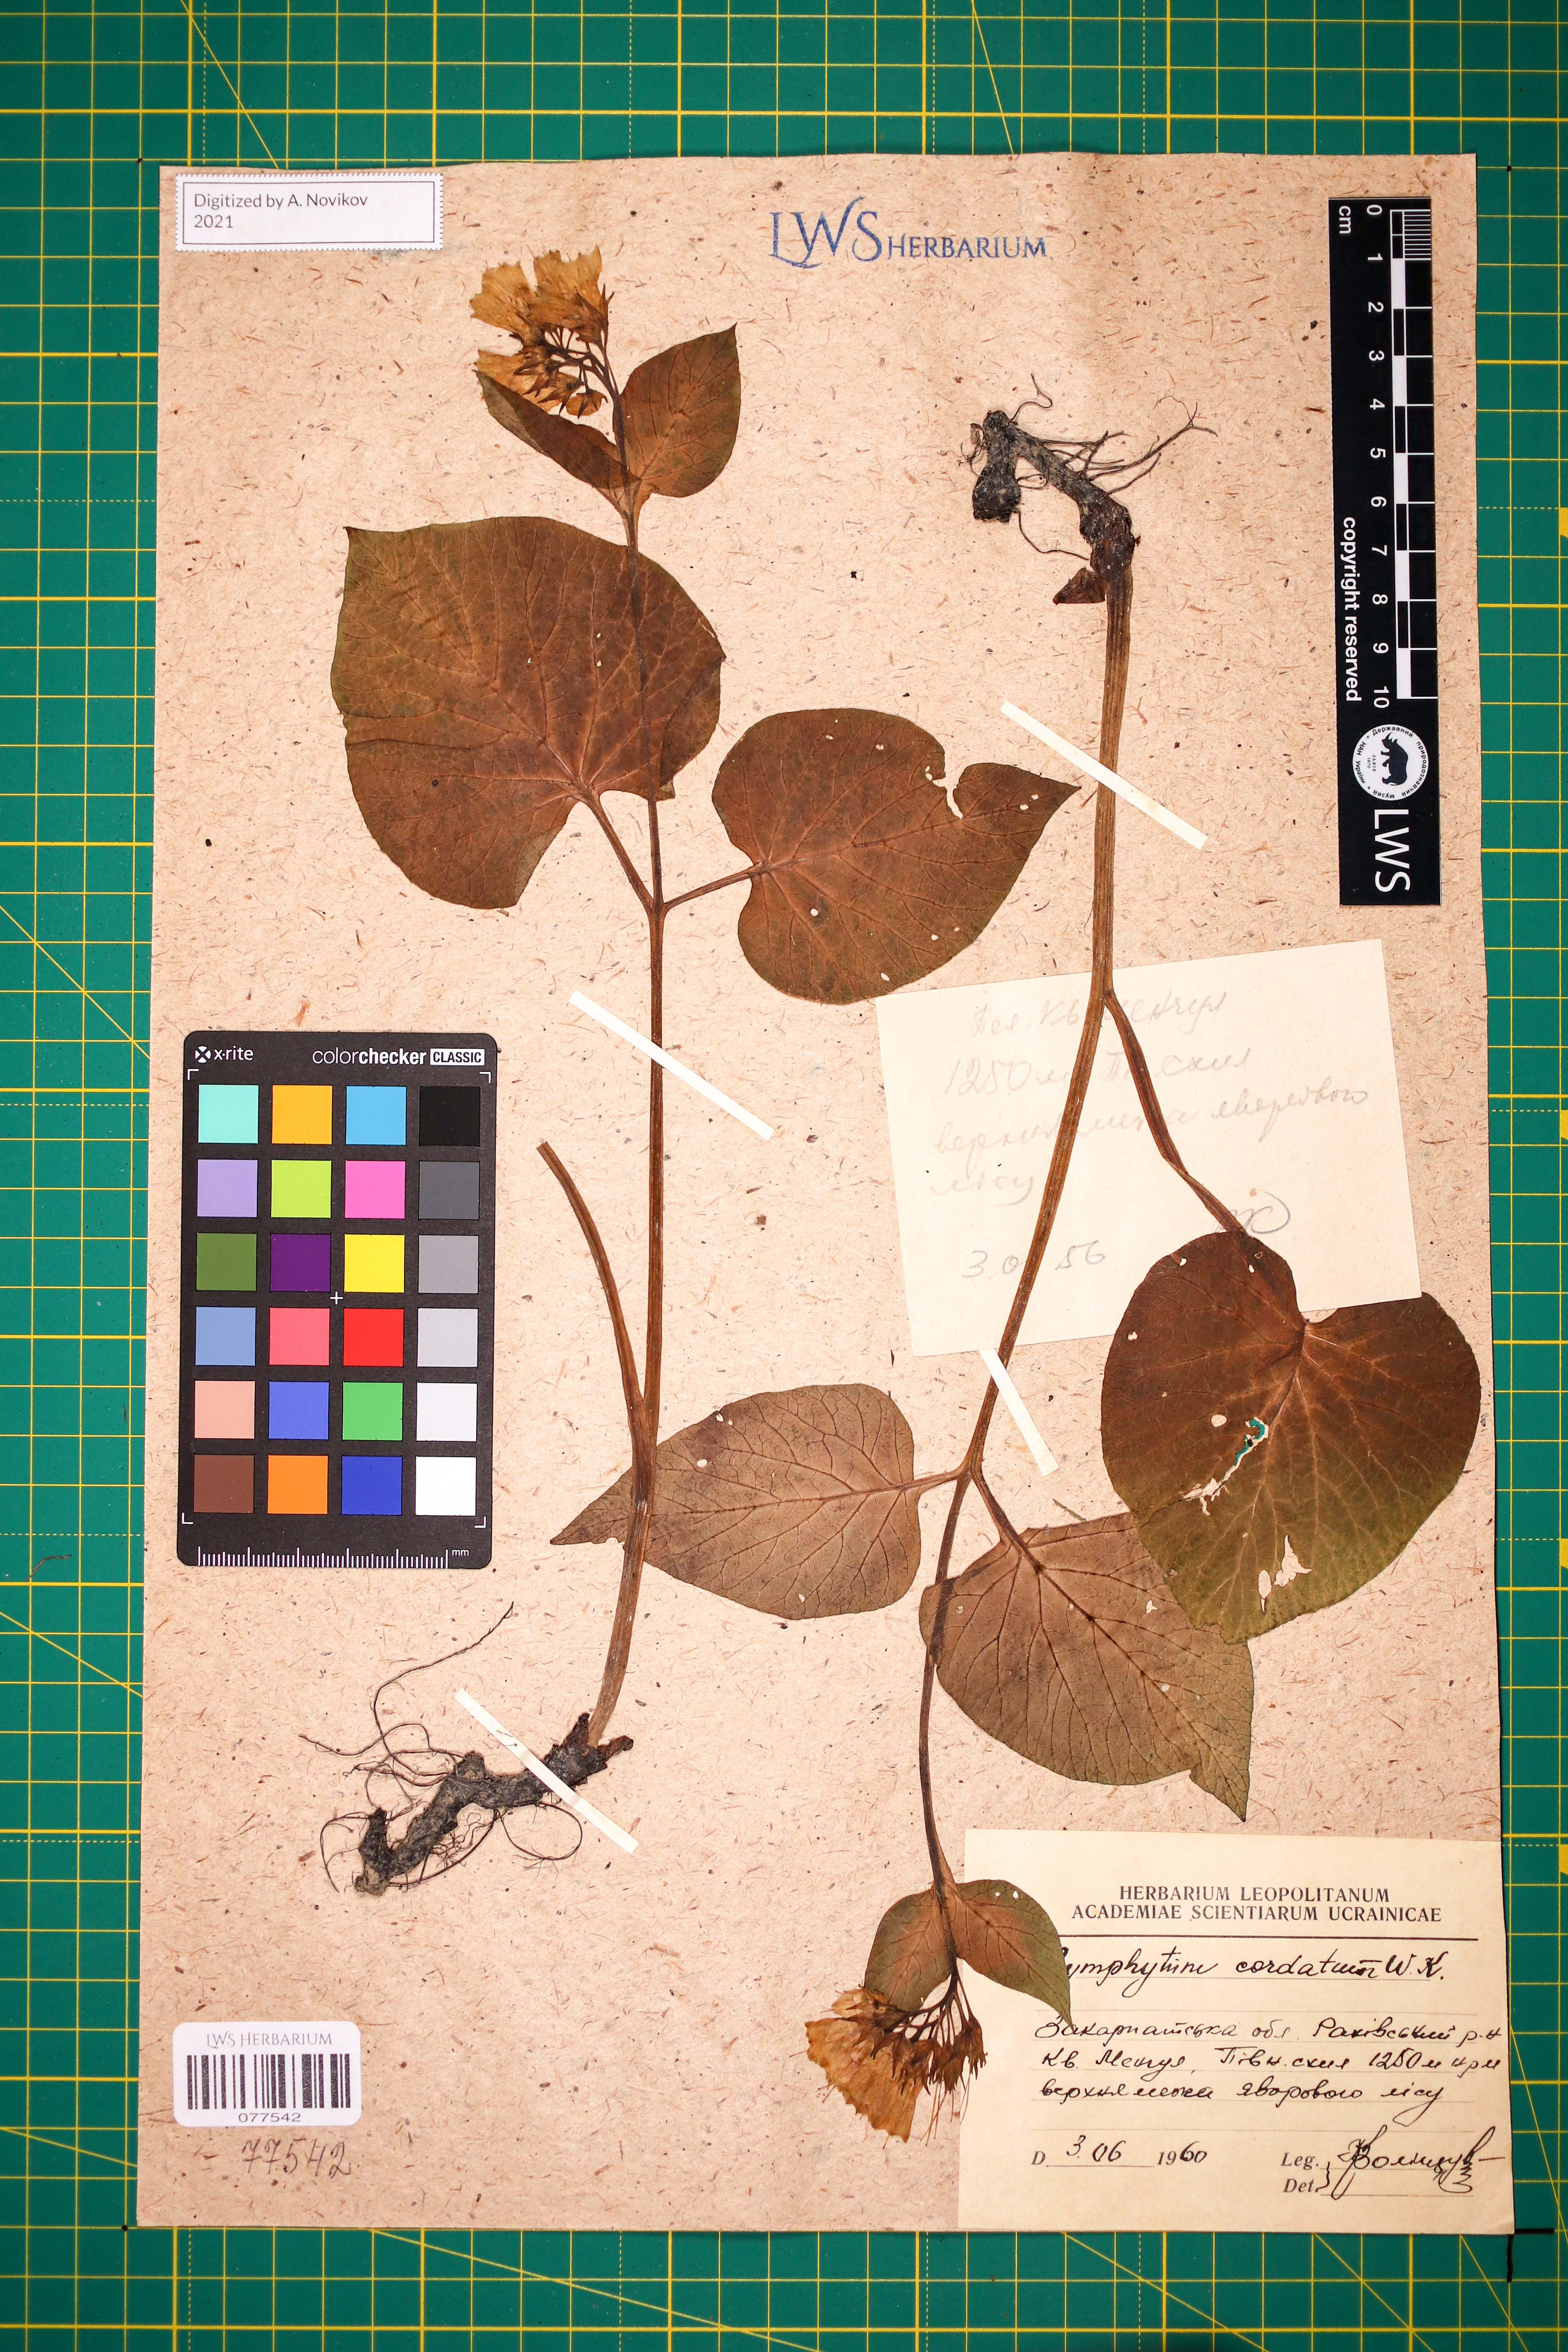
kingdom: Plantae
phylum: Tracheophyta
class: Magnoliopsida
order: Boraginales
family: Boraginaceae
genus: Symphytum
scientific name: Symphytum cordatum
